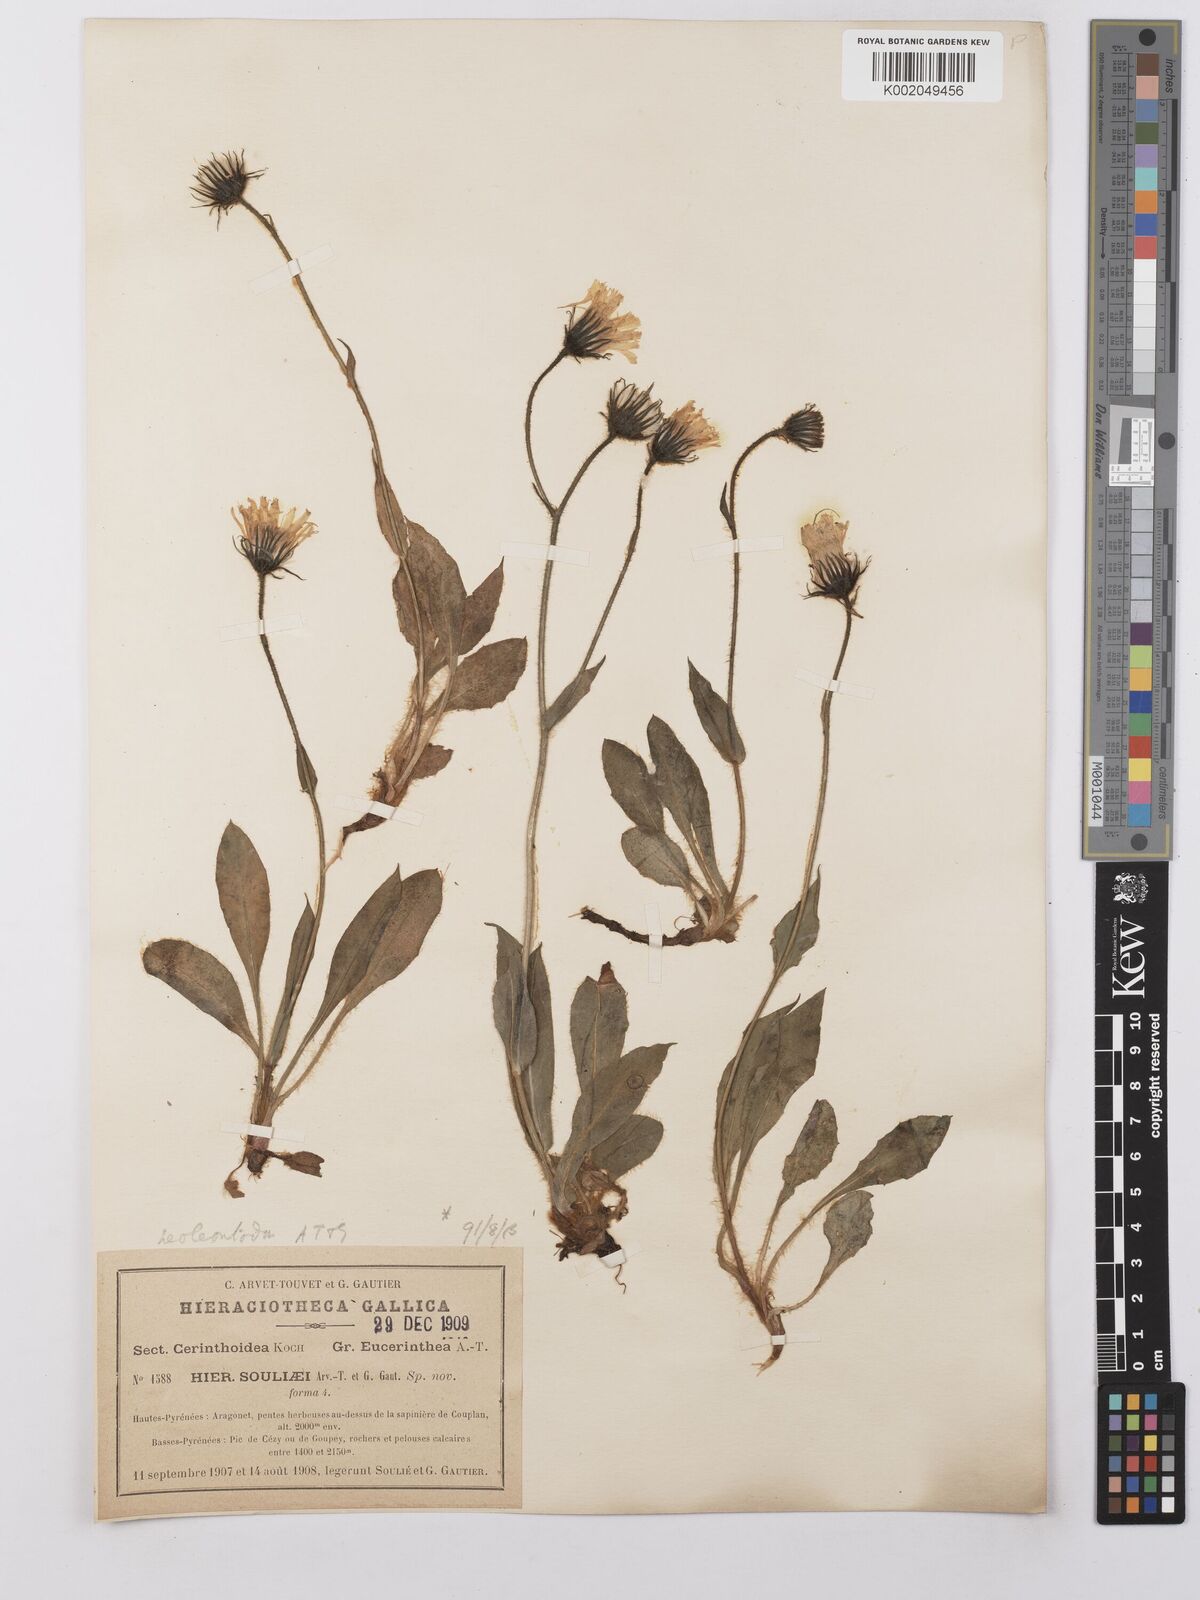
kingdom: Plantae
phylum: Tracheophyta
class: Magnoliopsida
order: Asterales
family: Asteraceae
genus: Hieracium
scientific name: Hieracium ramondii
